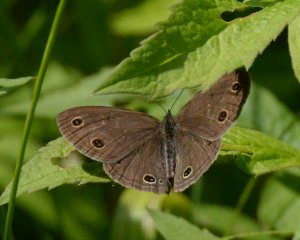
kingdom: Animalia
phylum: Arthropoda
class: Insecta
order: Lepidoptera
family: Nymphalidae
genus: Euptychia
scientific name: Euptychia cymela
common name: Little Wood Satyr
